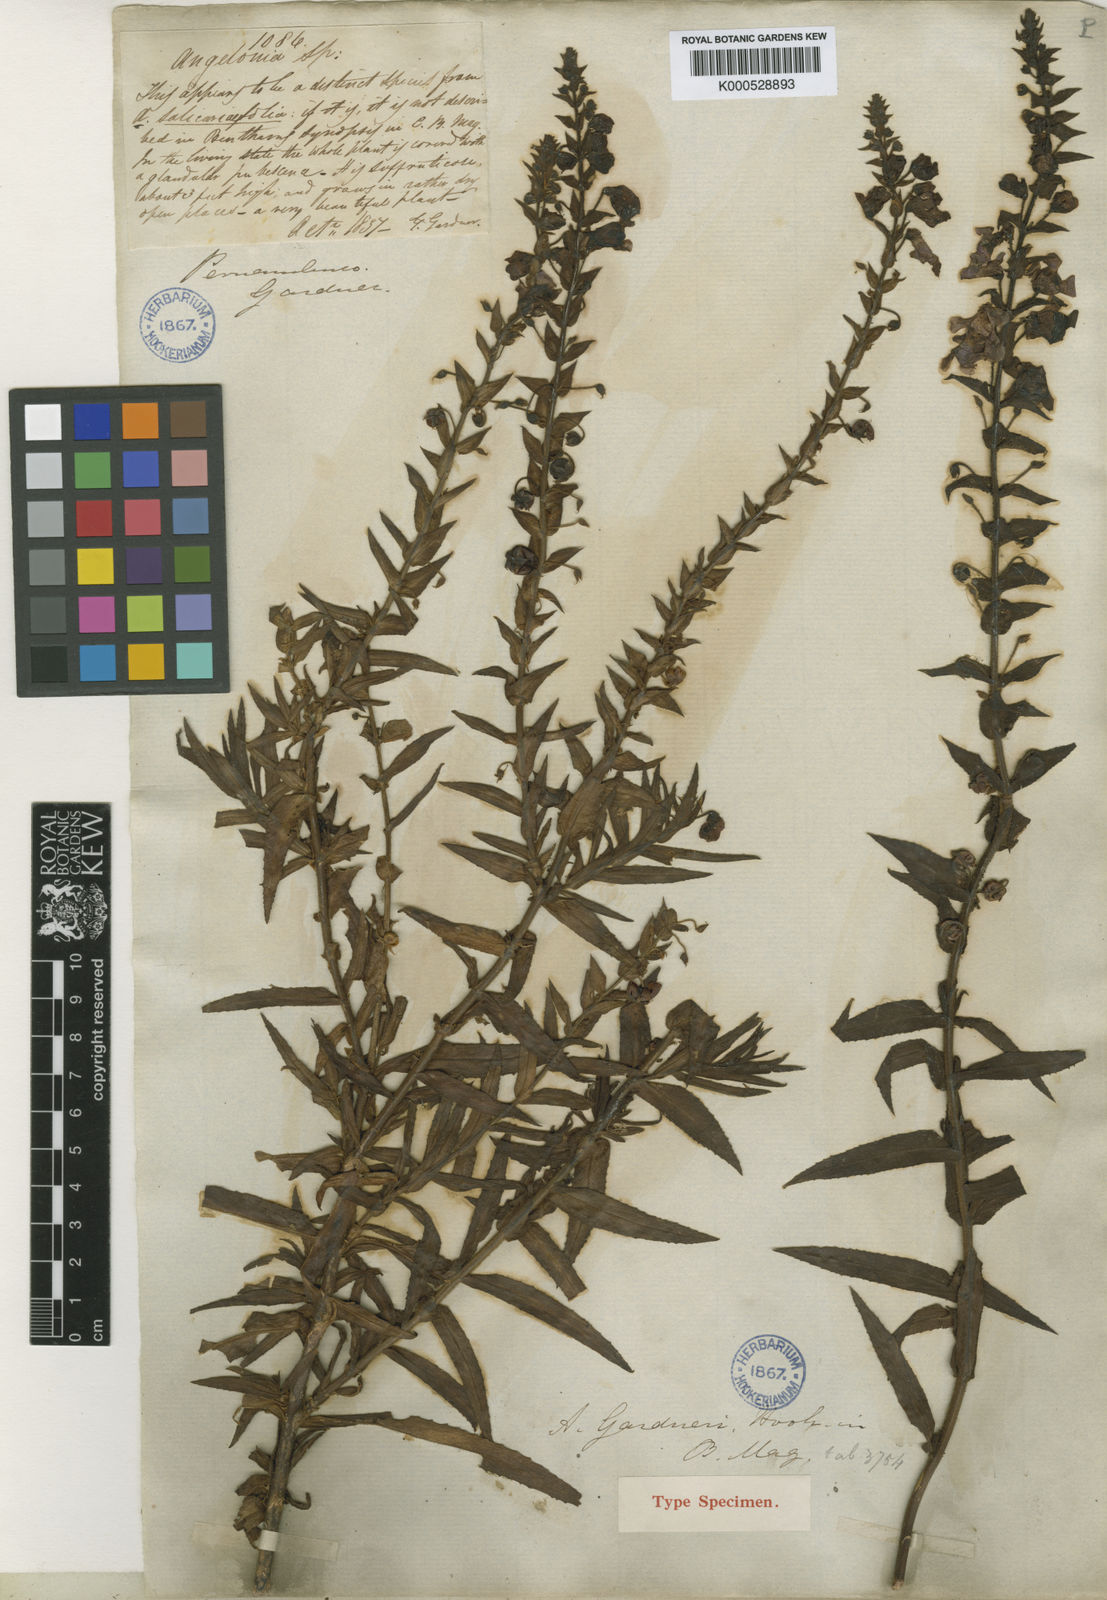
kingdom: Plantae
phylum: Tracheophyta
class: Magnoliopsida
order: Lamiales
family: Plantaginaceae
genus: Angelonia
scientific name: Angelonia salicariifolia
